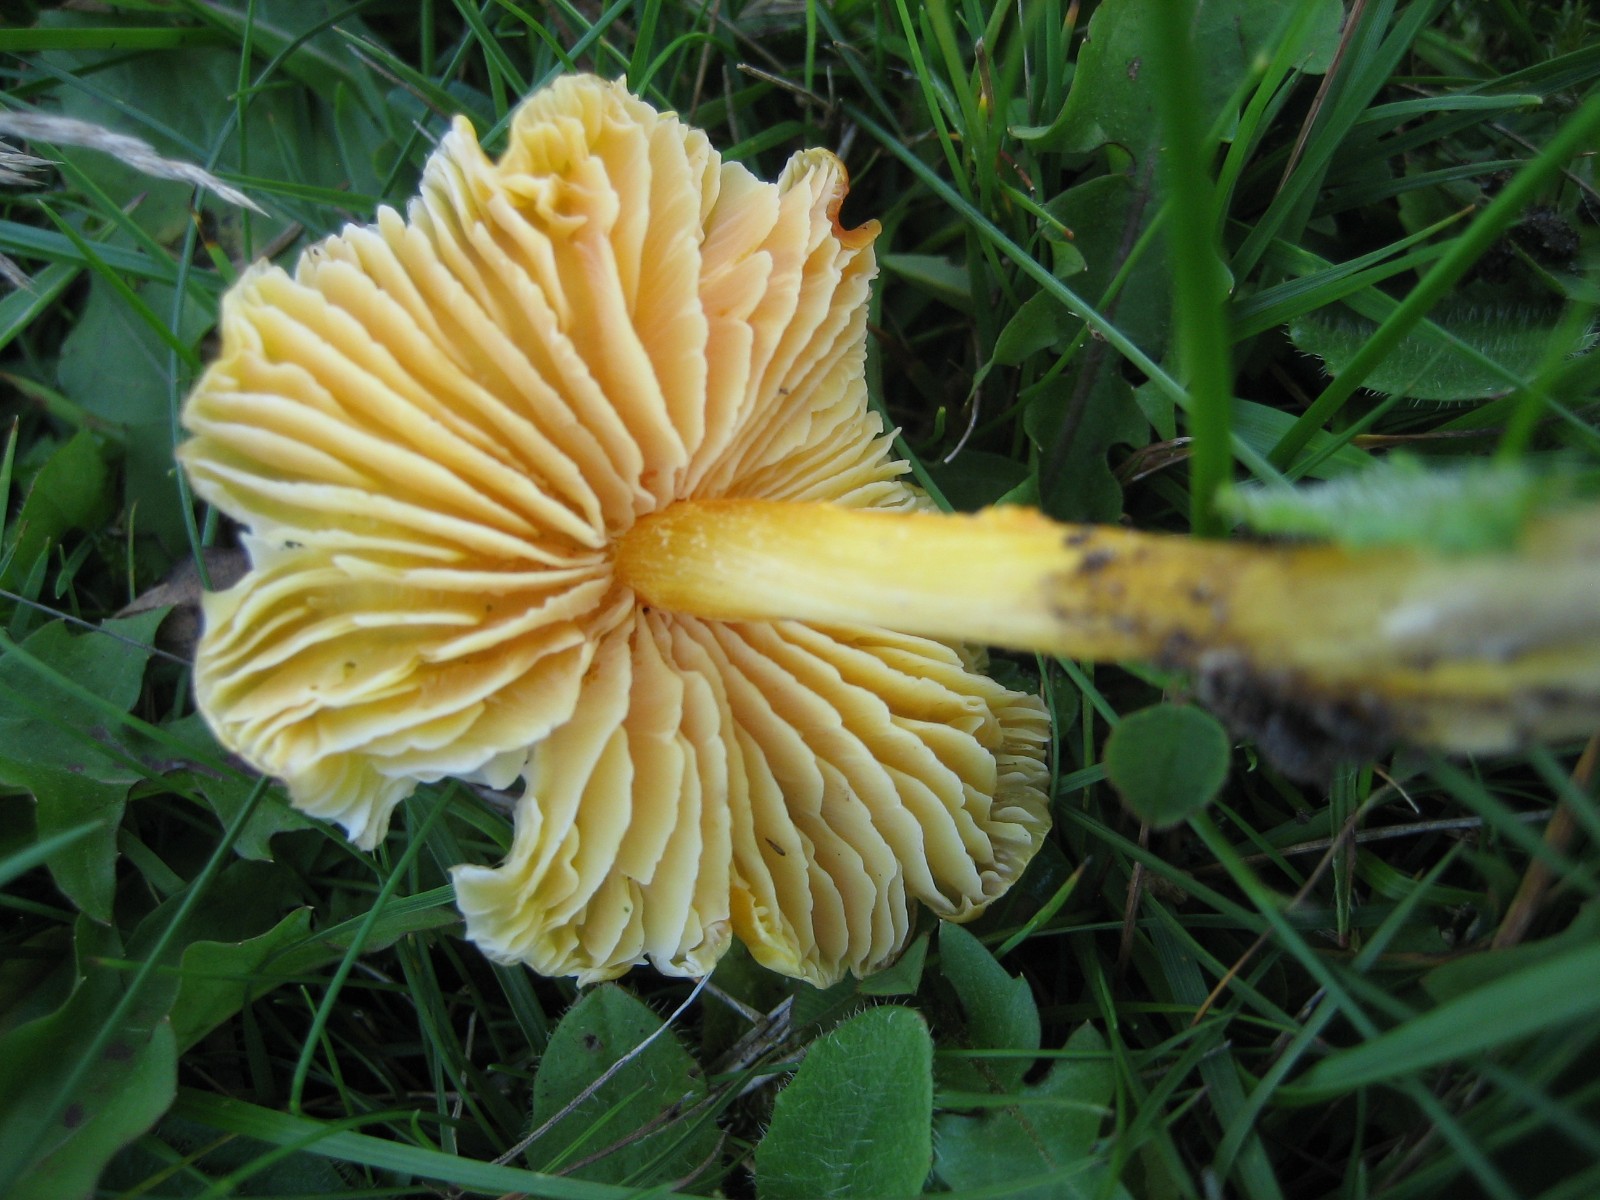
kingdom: Fungi
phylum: Basidiomycota
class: Agaricomycetes
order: Agaricales
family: Hygrophoraceae
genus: Hygrocybe
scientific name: Hygrocybe
